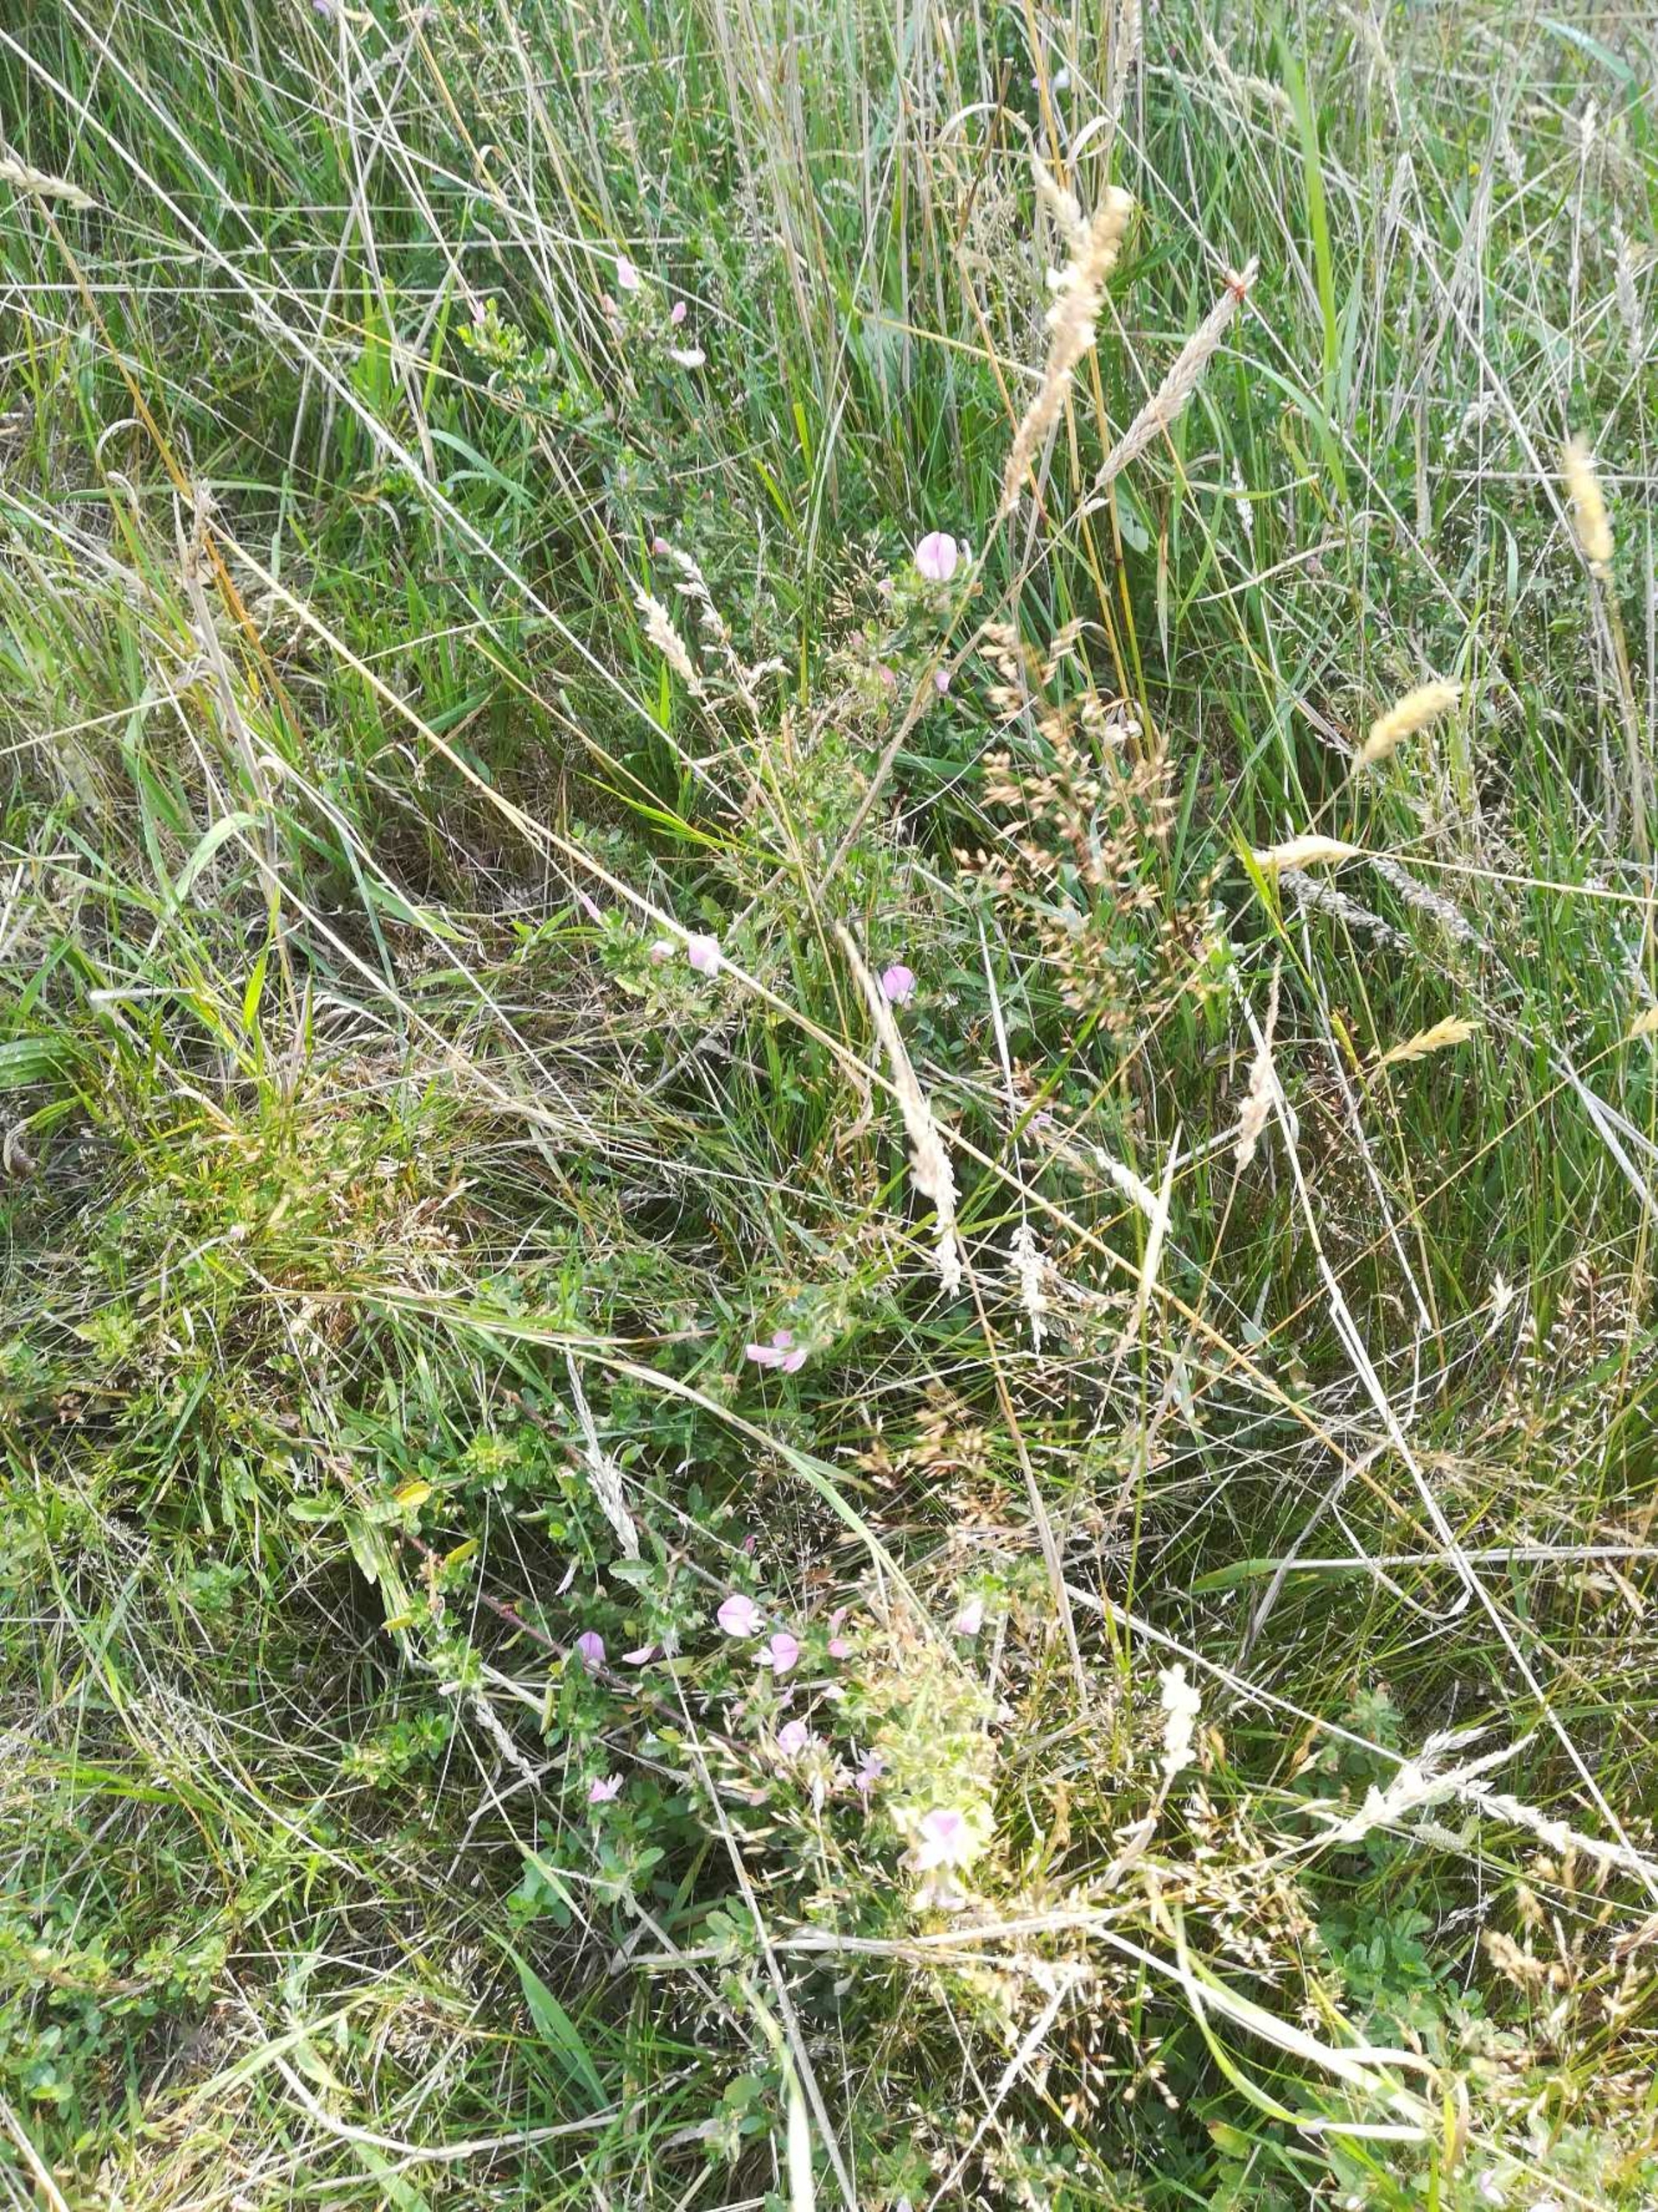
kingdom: Plantae
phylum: Tracheophyta
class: Magnoliopsida
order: Fabales
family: Fabaceae
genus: Ononis
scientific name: Ononis spinosa
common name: Krageklo
